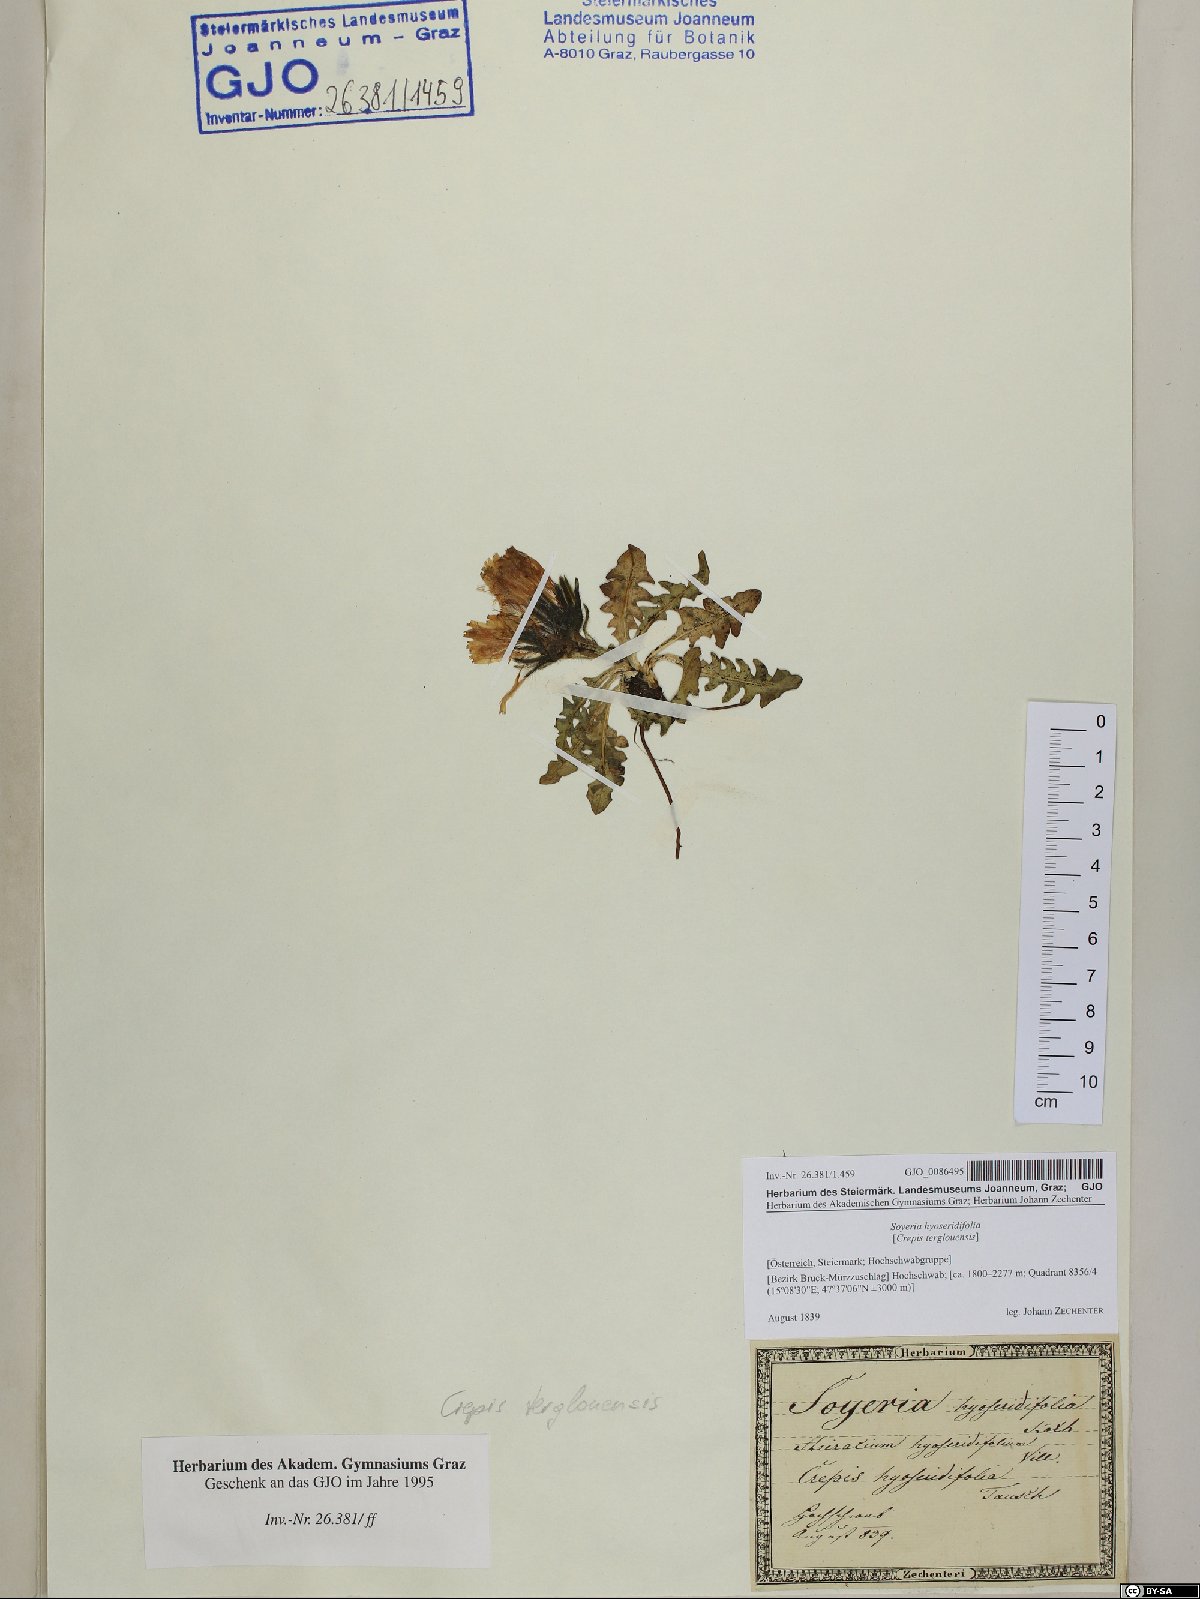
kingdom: Plantae
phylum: Tracheophyta
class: Magnoliopsida
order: Asterales
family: Asteraceae
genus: Crepis
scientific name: Crepis terglouensis
